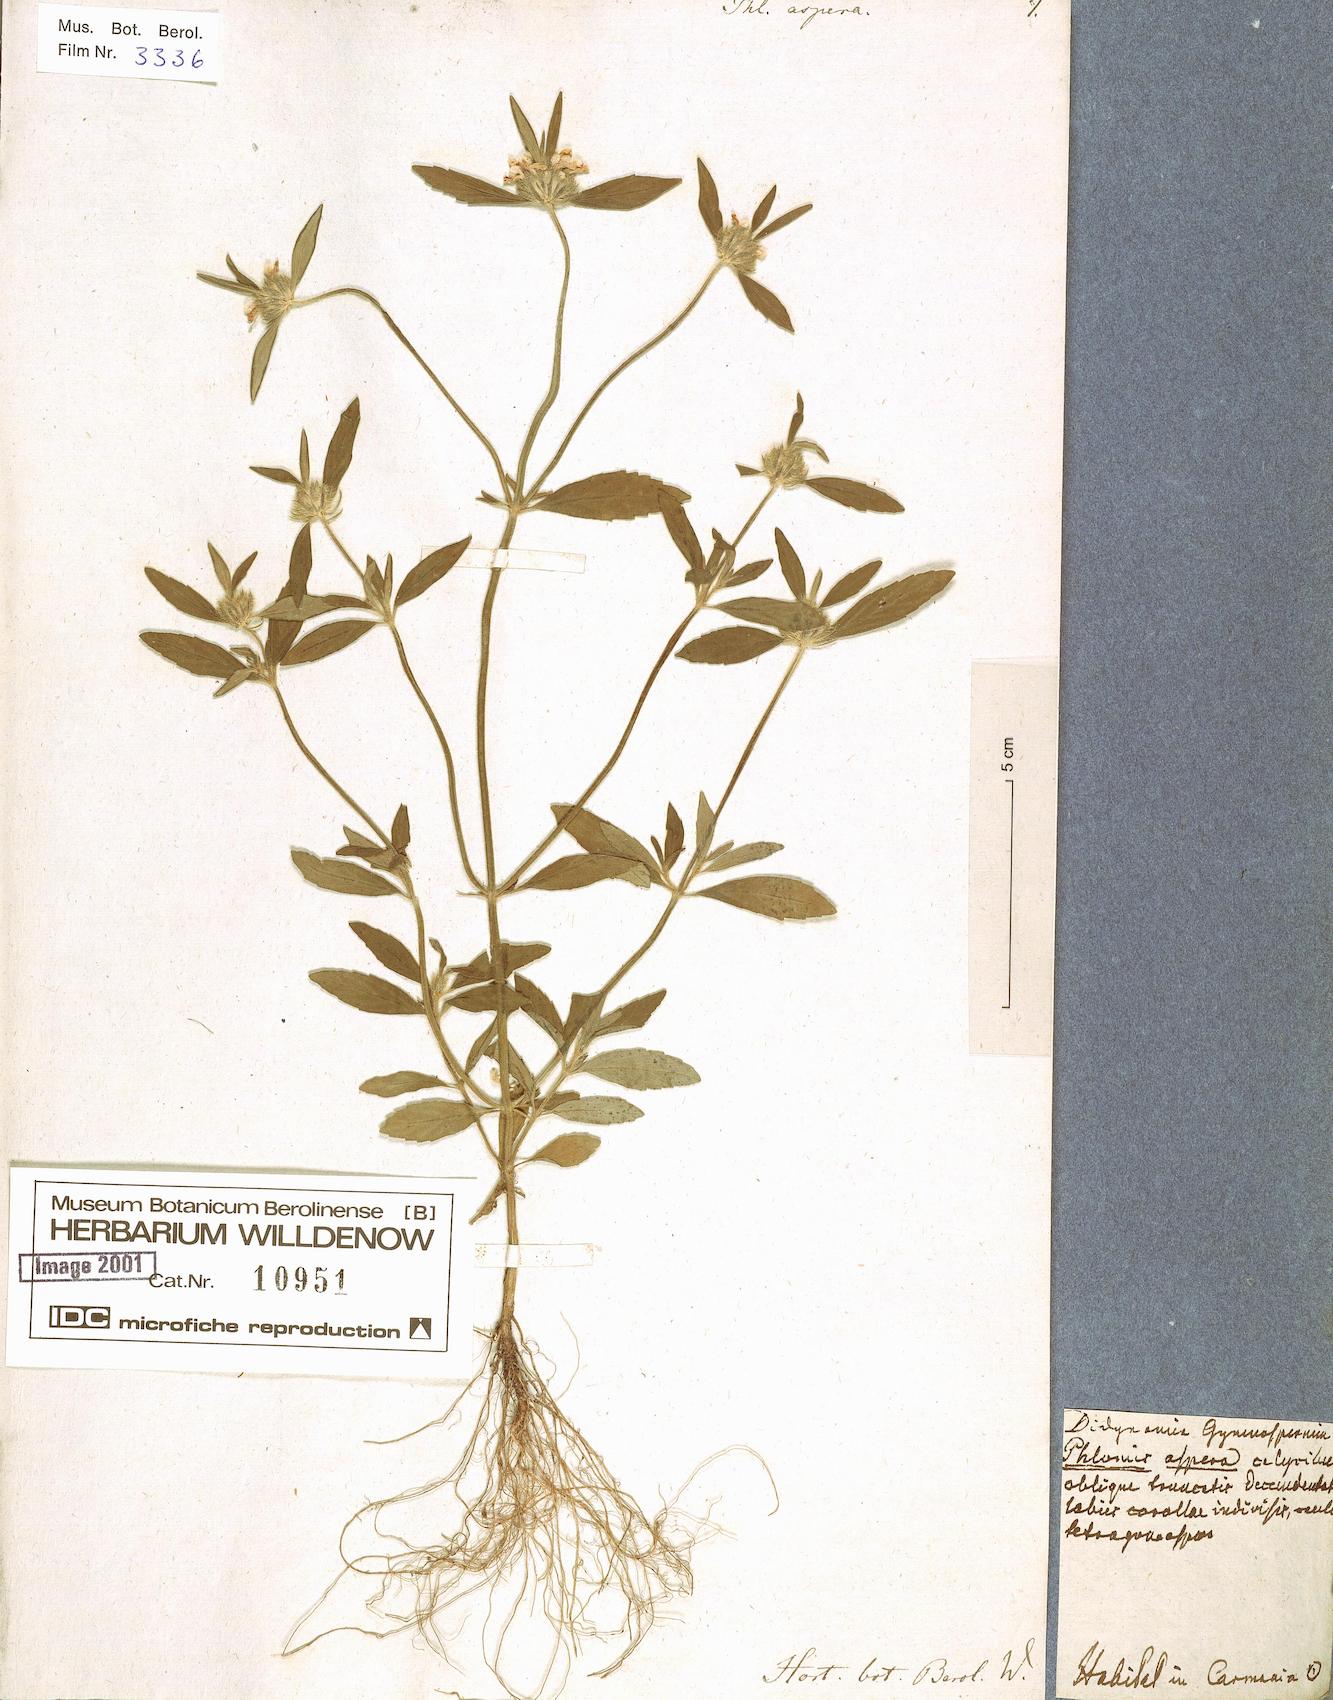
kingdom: Plantae
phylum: Tracheophyta
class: Magnoliopsida
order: Lamiales
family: Lamiaceae
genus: Leucas
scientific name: Leucas aspera
